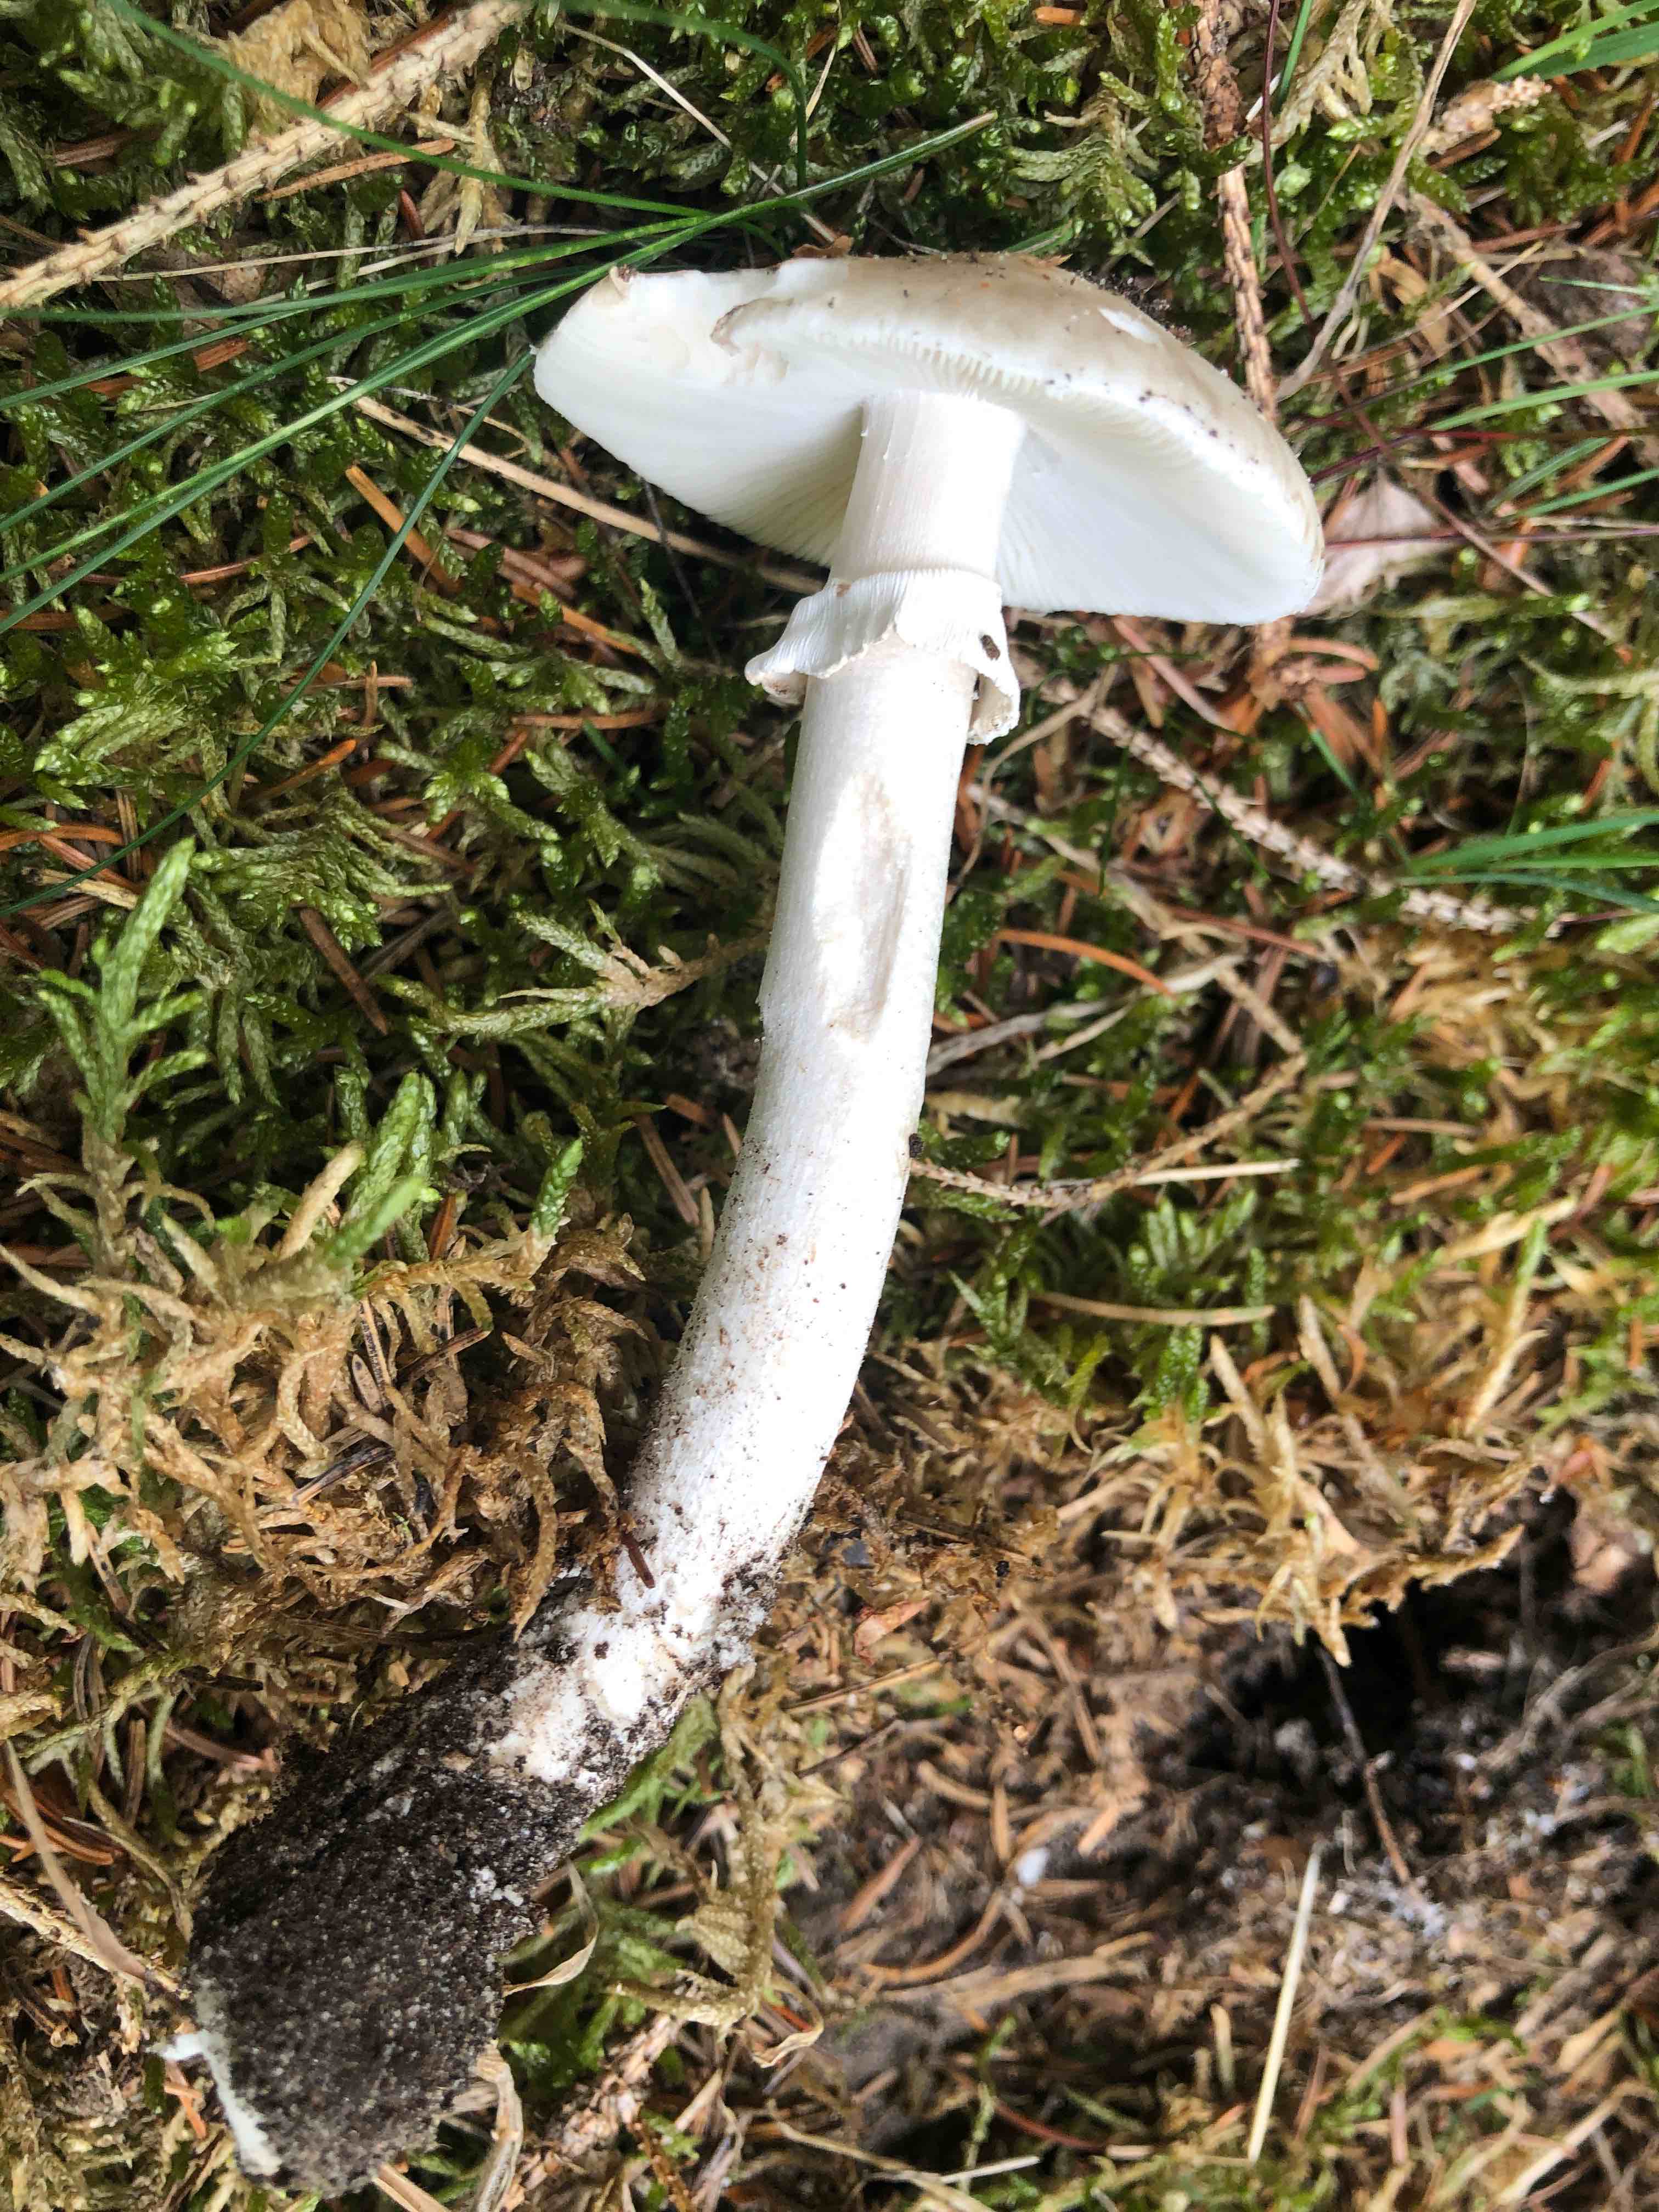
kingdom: Fungi
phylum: Basidiomycota
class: Agaricomycetes
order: Agaricales
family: Amanitaceae
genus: Amanita
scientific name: Amanita
